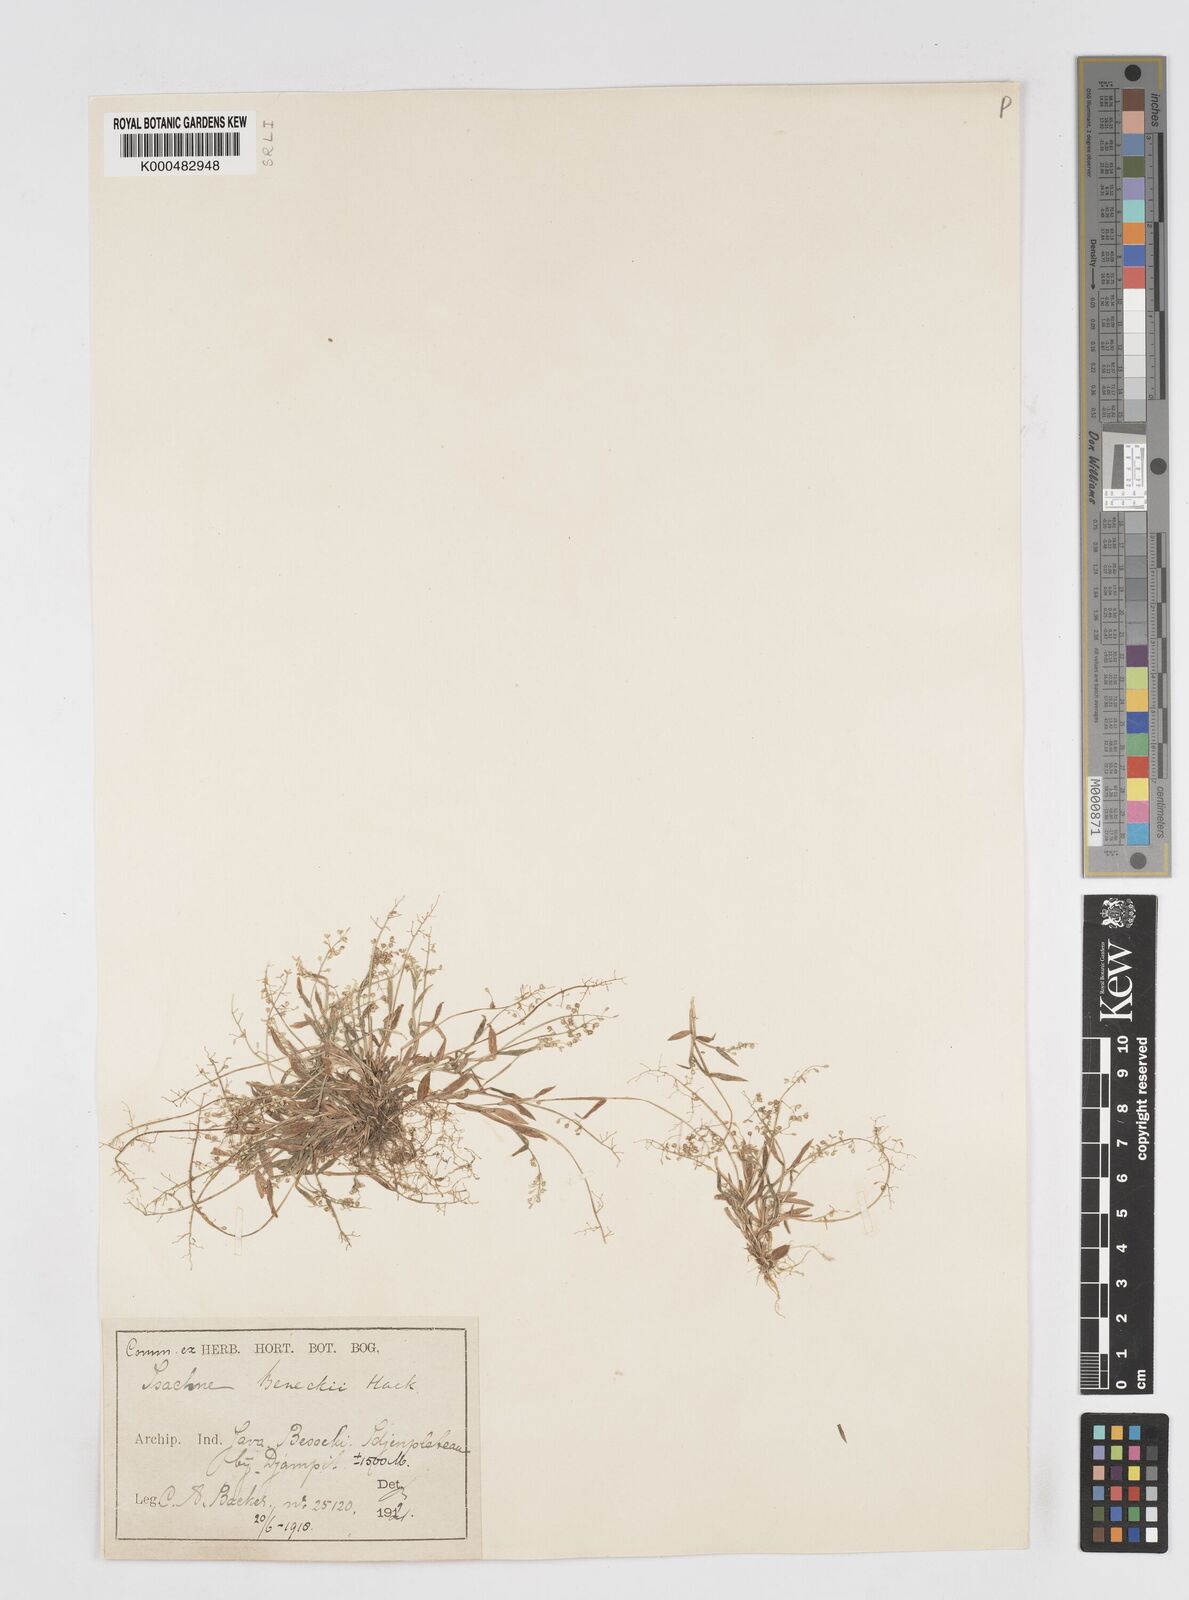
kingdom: Plantae
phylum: Tracheophyta
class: Liliopsida
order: Poales
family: Poaceae
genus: Isachne
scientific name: Isachne clarkei
